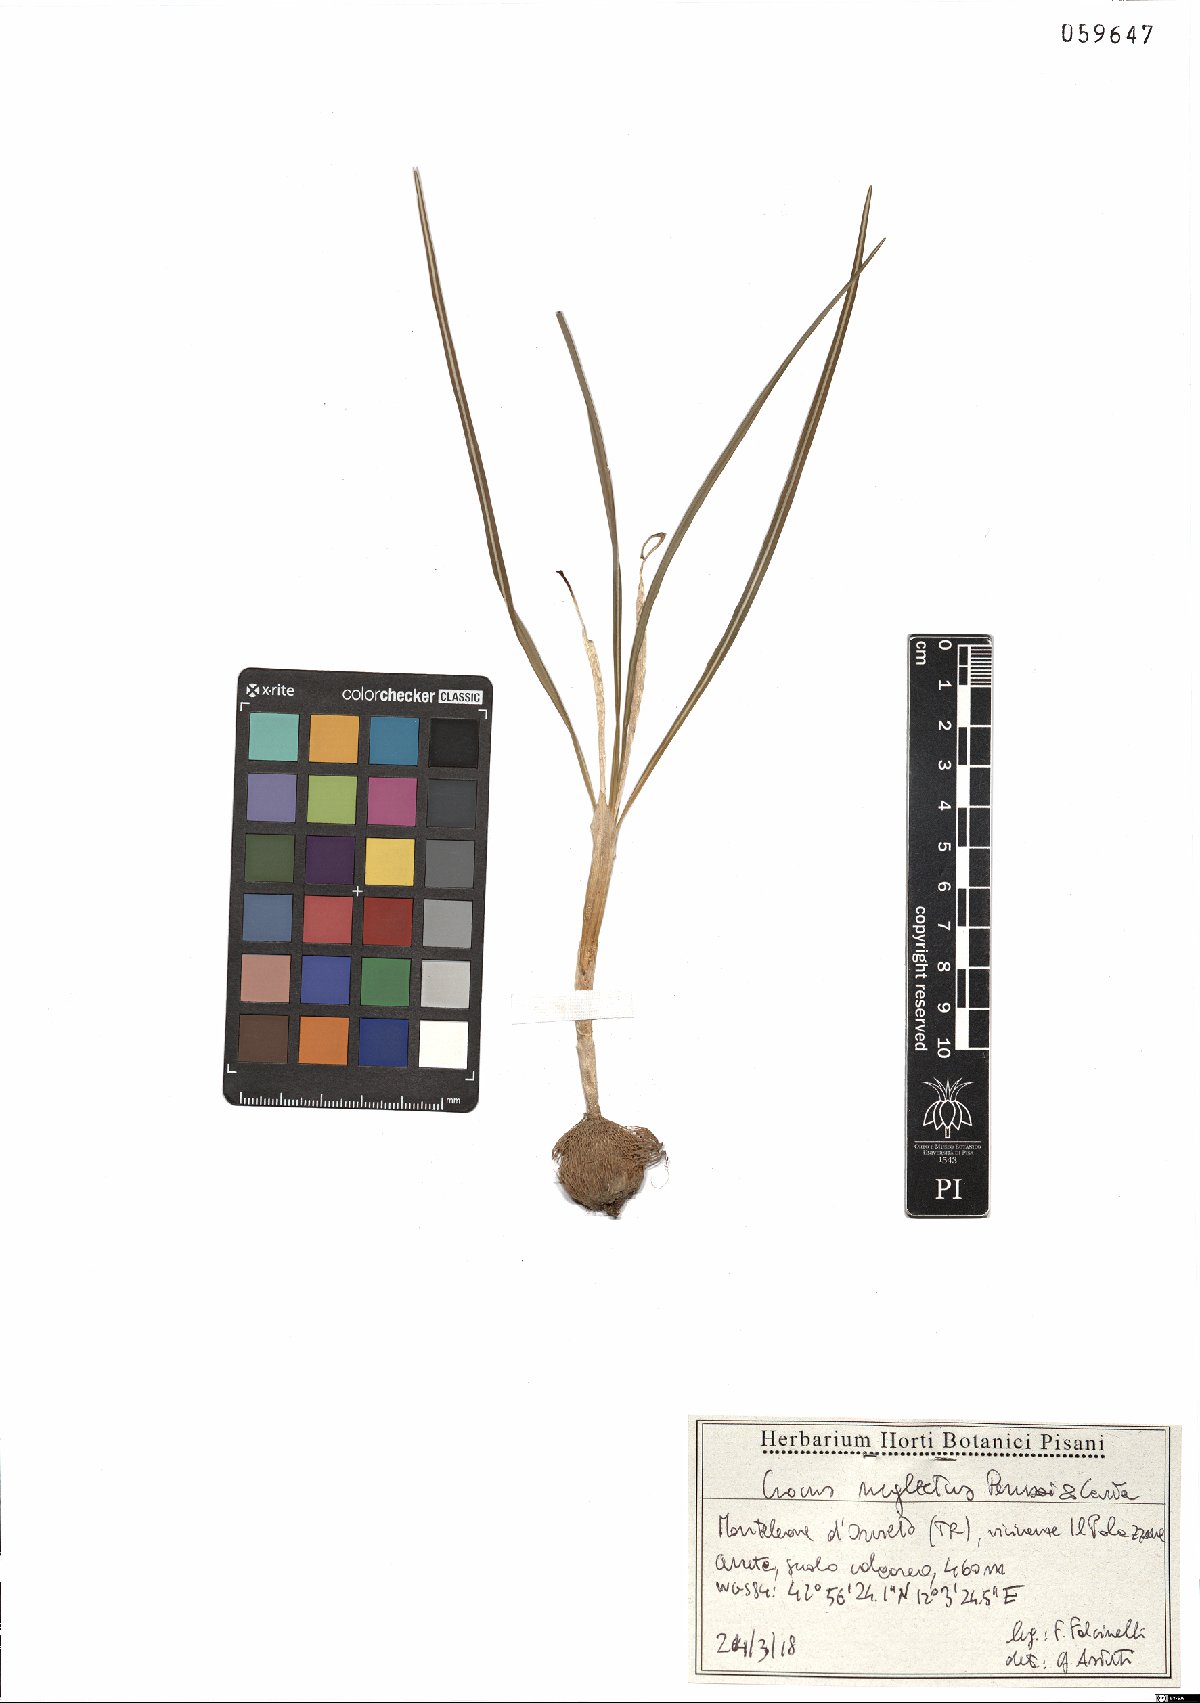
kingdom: Plantae
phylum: Tracheophyta
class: Liliopsida
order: Asparagales
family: Iridaceae
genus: Crocus
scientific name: Crocus neglectus
